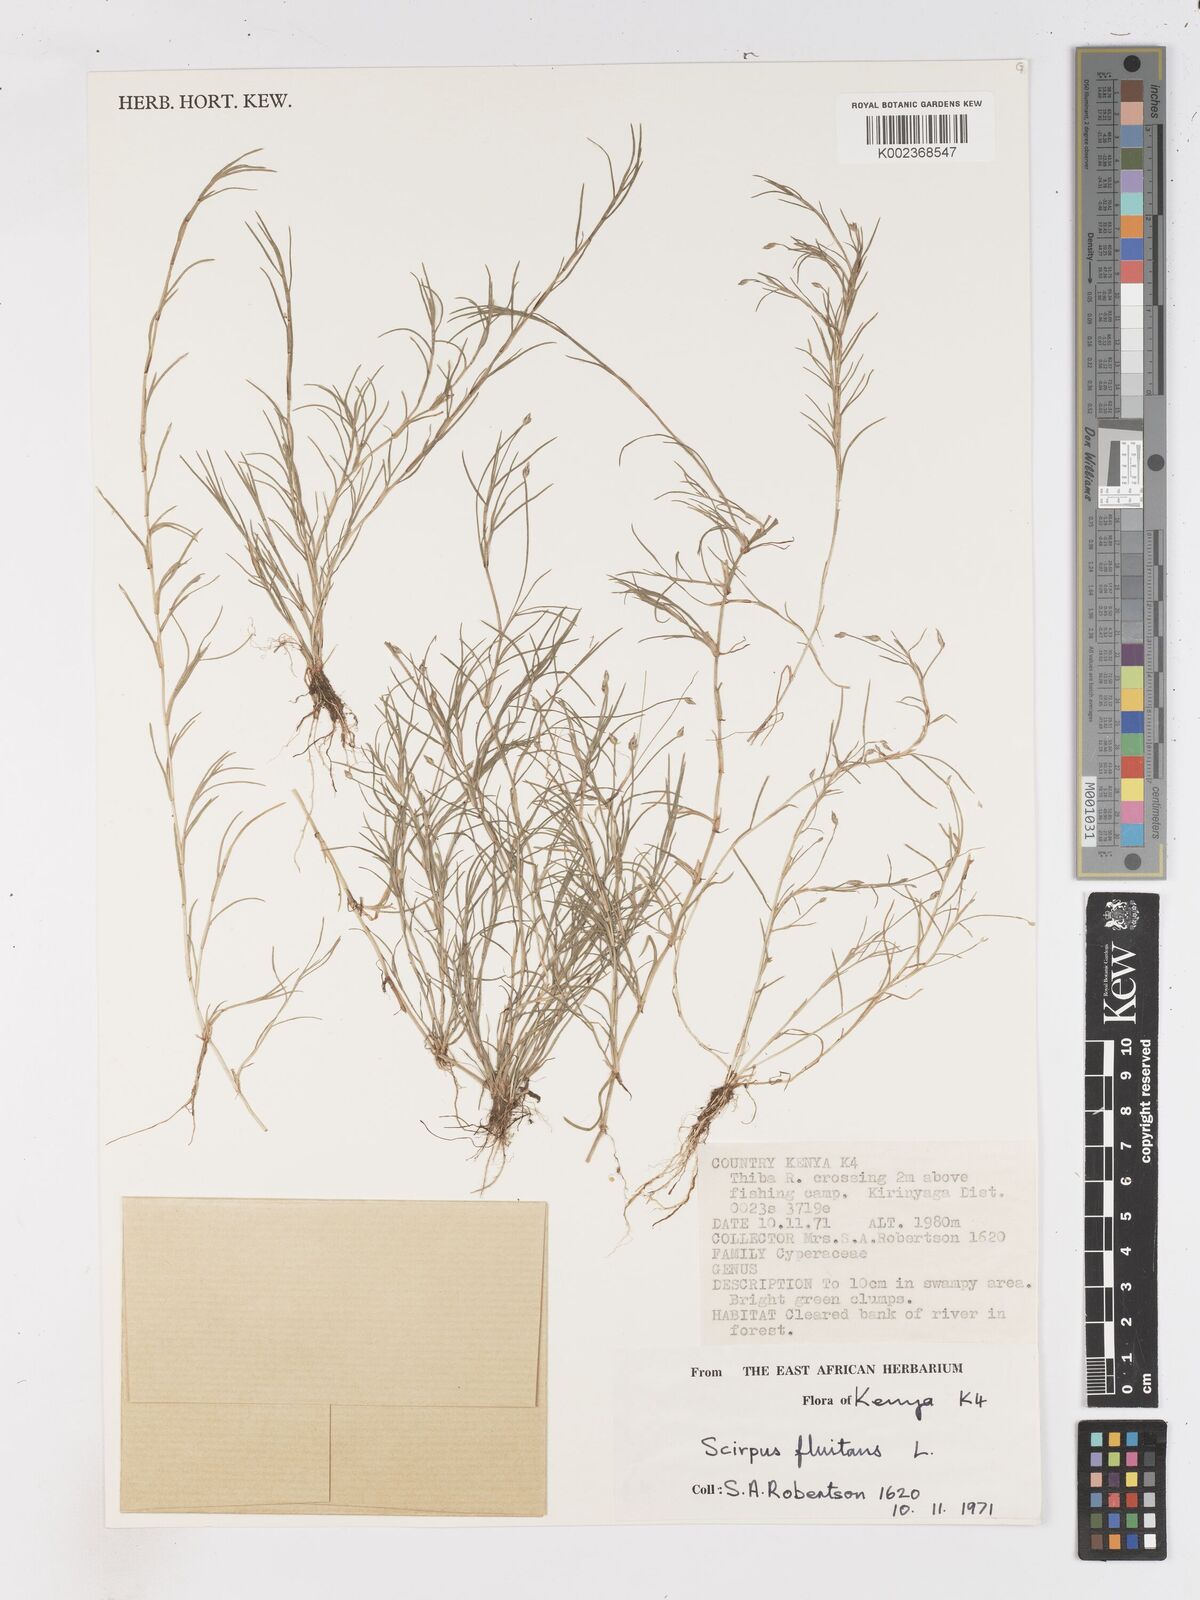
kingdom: Plantae
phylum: Tracheophyta
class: Liliopsida
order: Poales
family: Cyperaceae
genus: Isolepis
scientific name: Isolepis fluitans
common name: Floating club-rush
